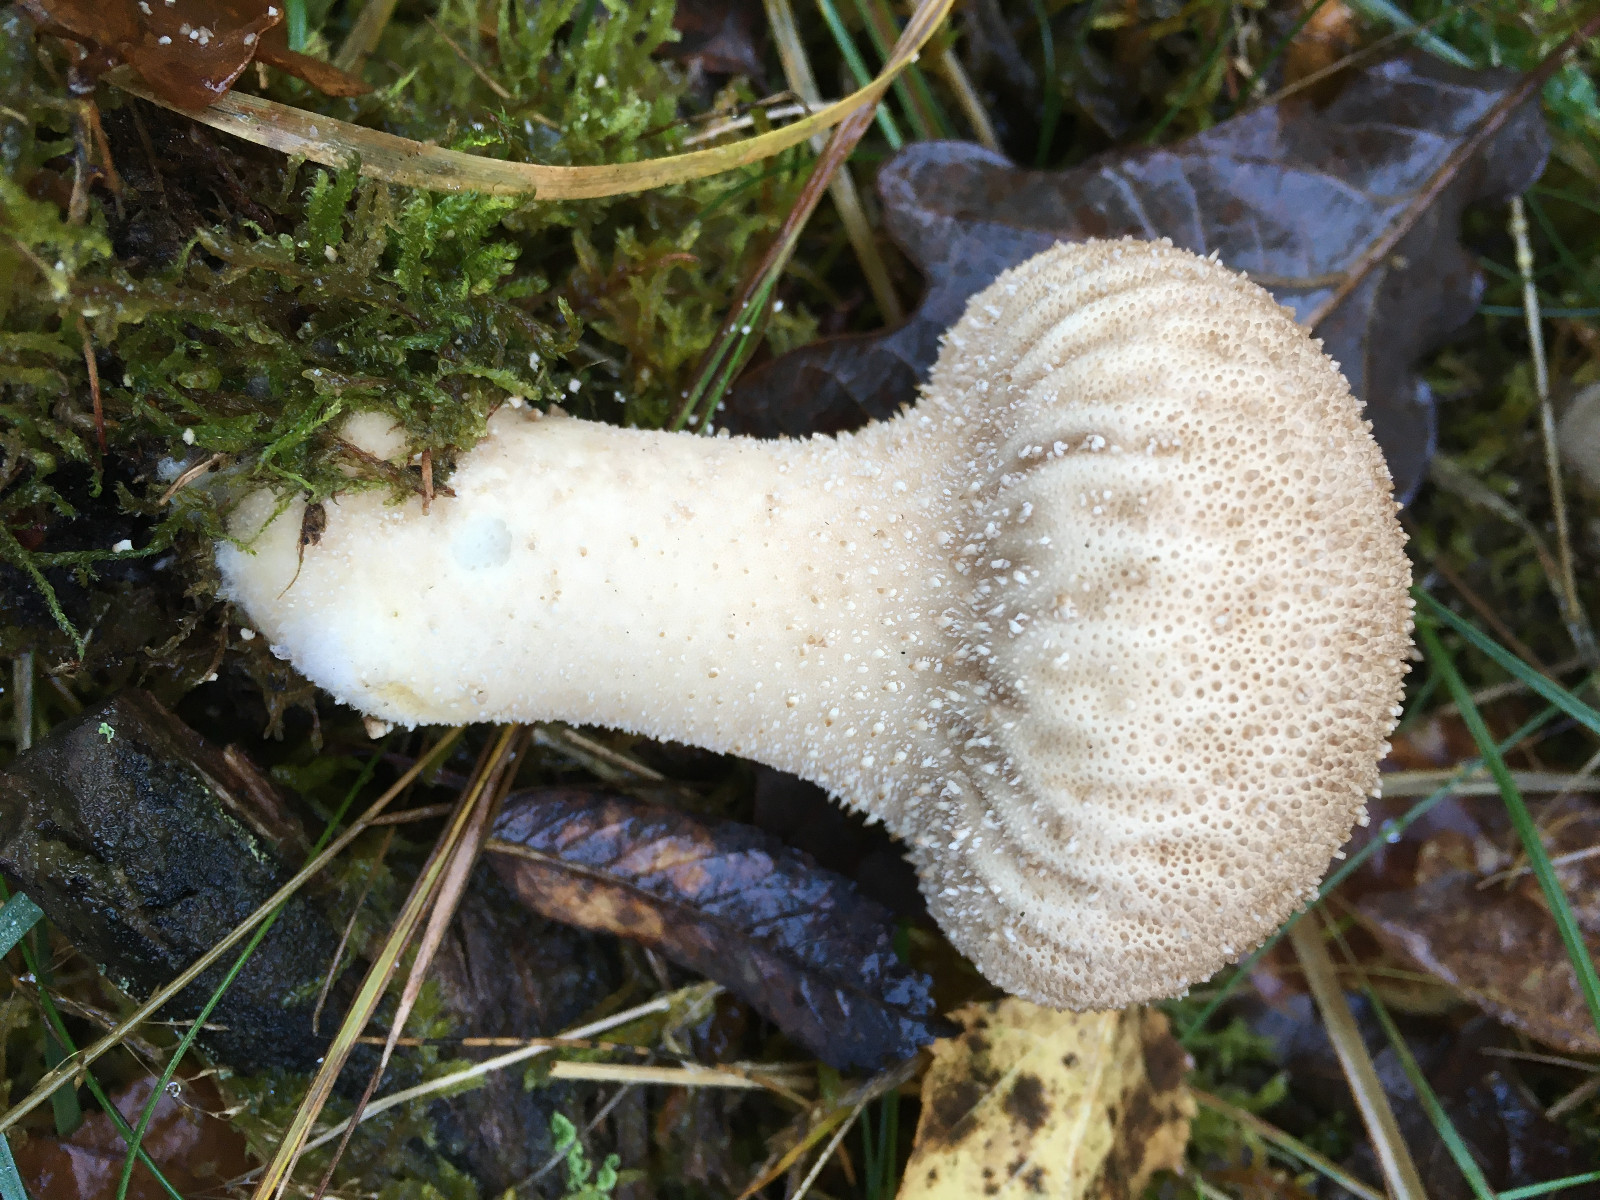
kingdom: Fungi
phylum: Basidiomycota
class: Agaricomycetes
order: Agaricales
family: Lycoperdaceae
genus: Lycoperdon
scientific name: Lycoperdon perlatum
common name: krystal-støvbold
